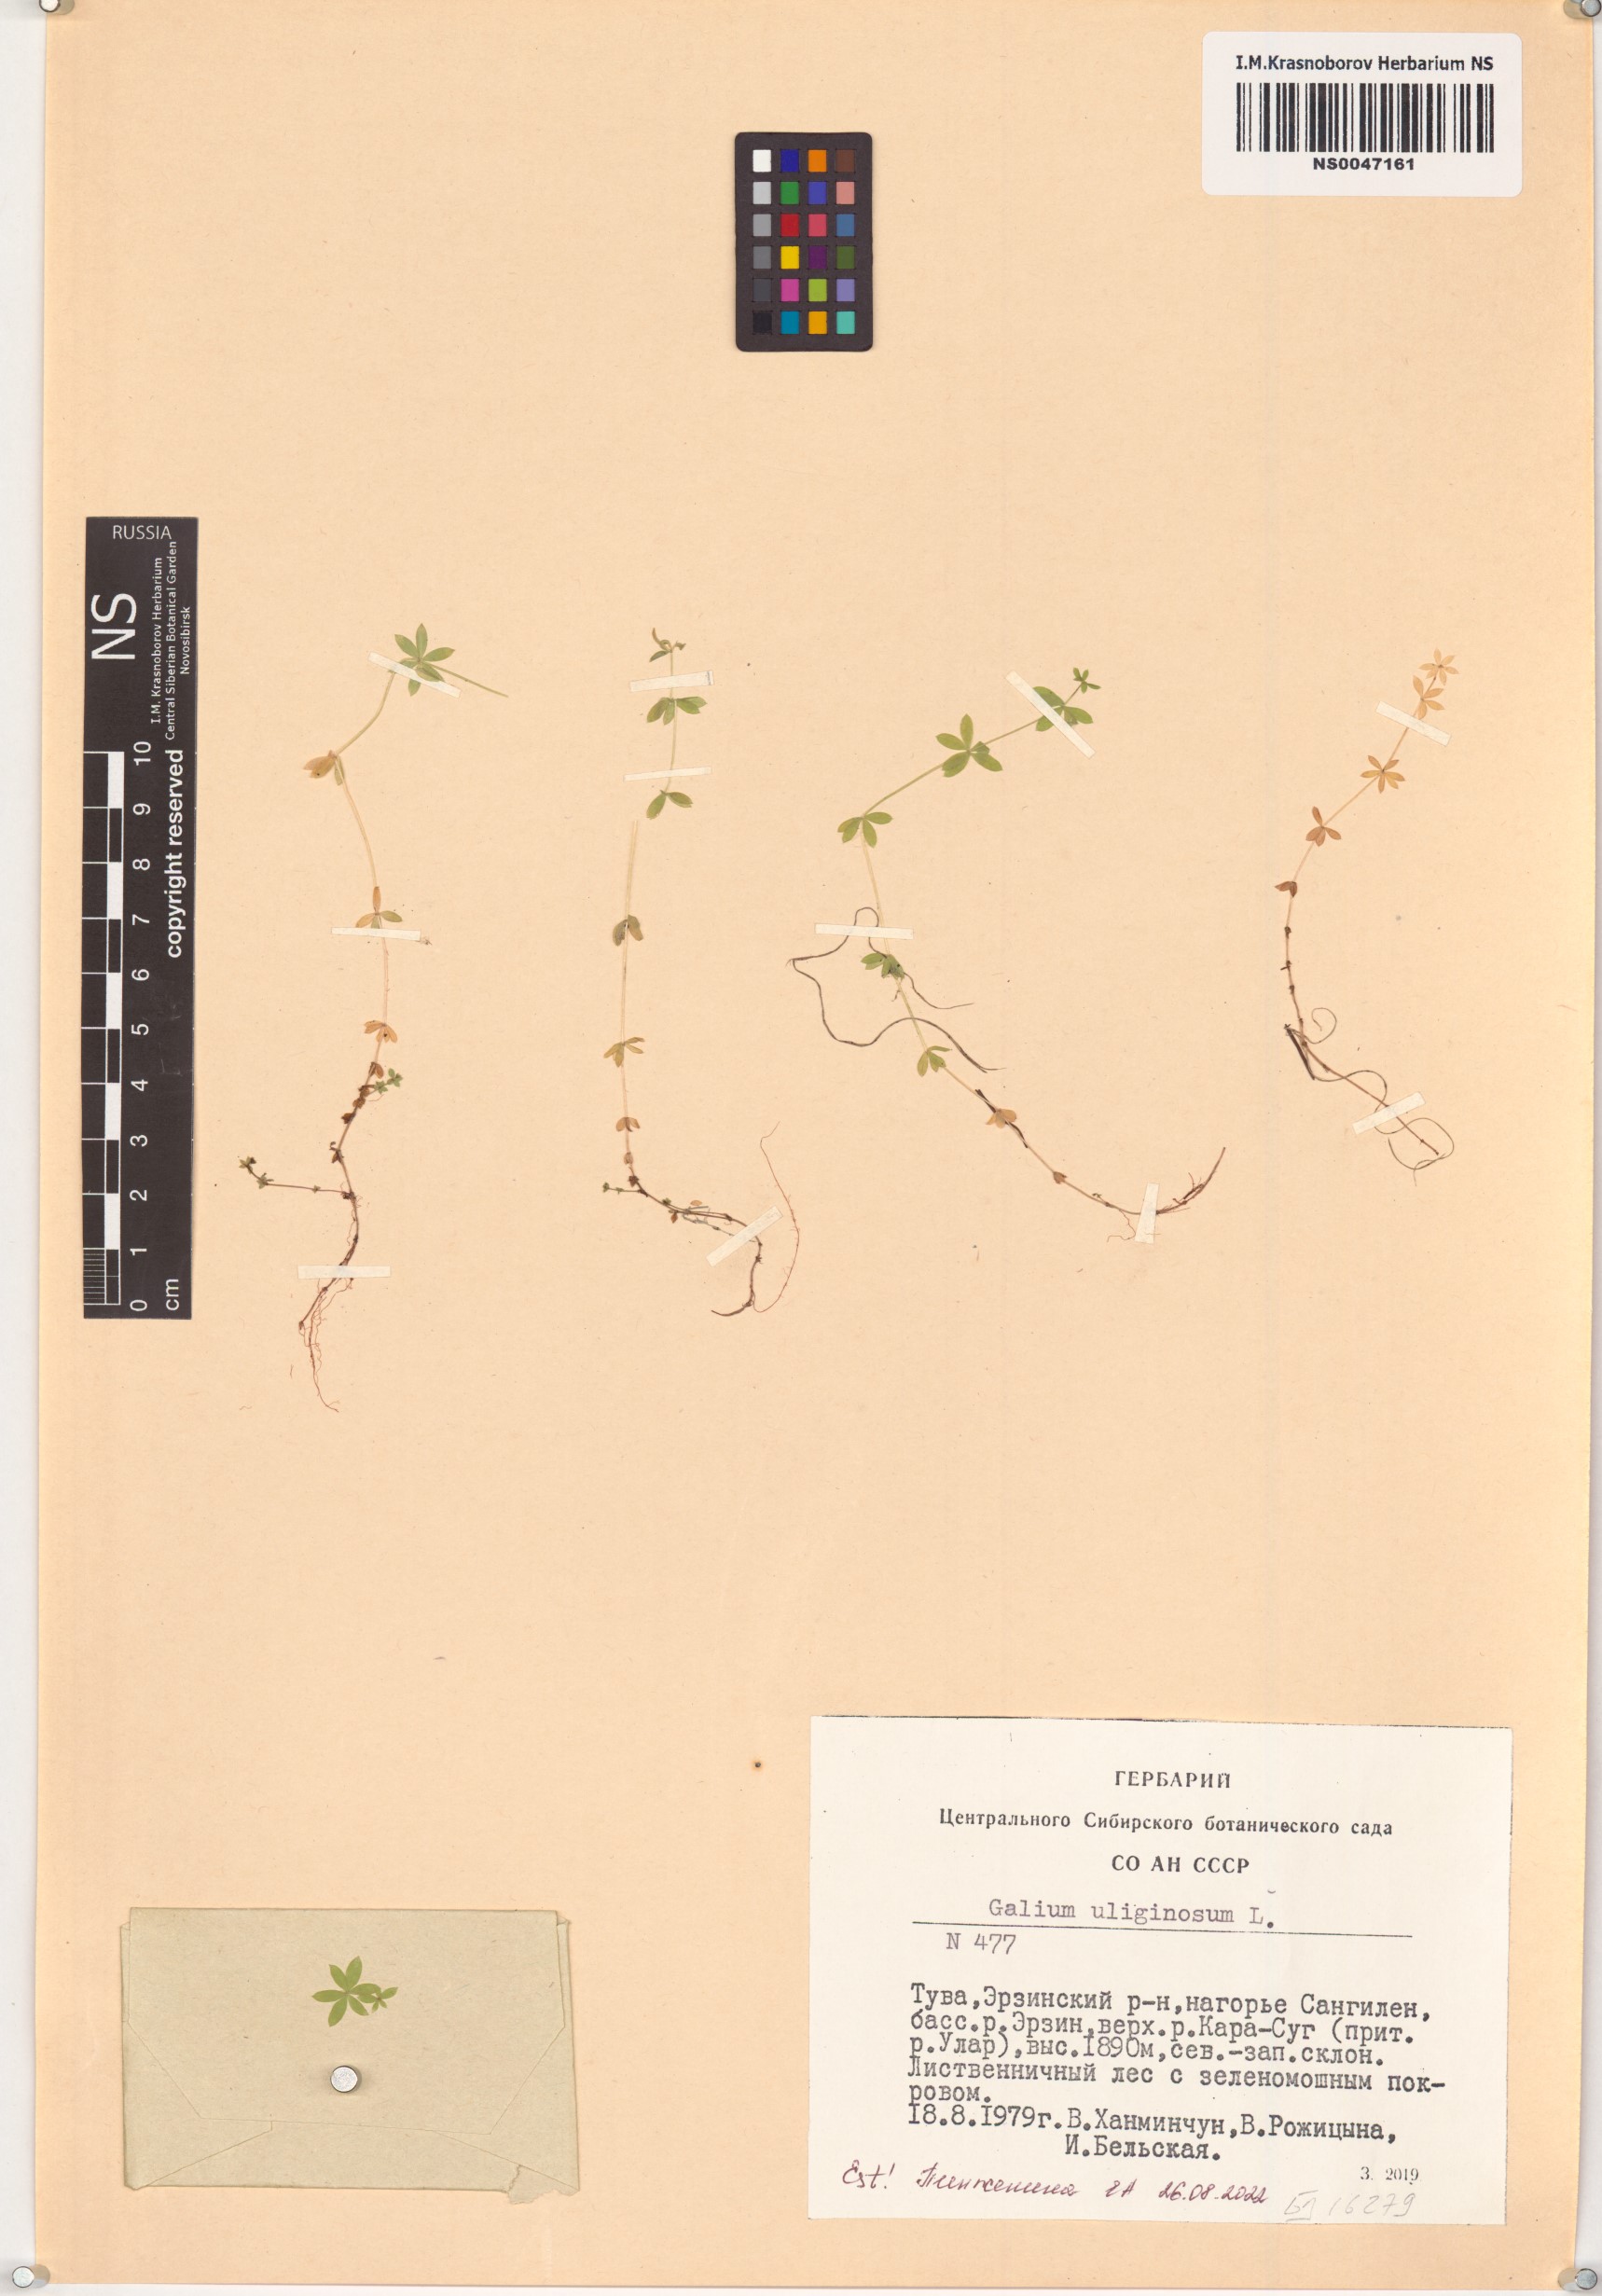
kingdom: Plantae
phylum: Tracheophyta
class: Magnoliopsida
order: Gentianales
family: Rubiaceae
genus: Galium
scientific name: Galium uliginosum
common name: Fen bedstraw
